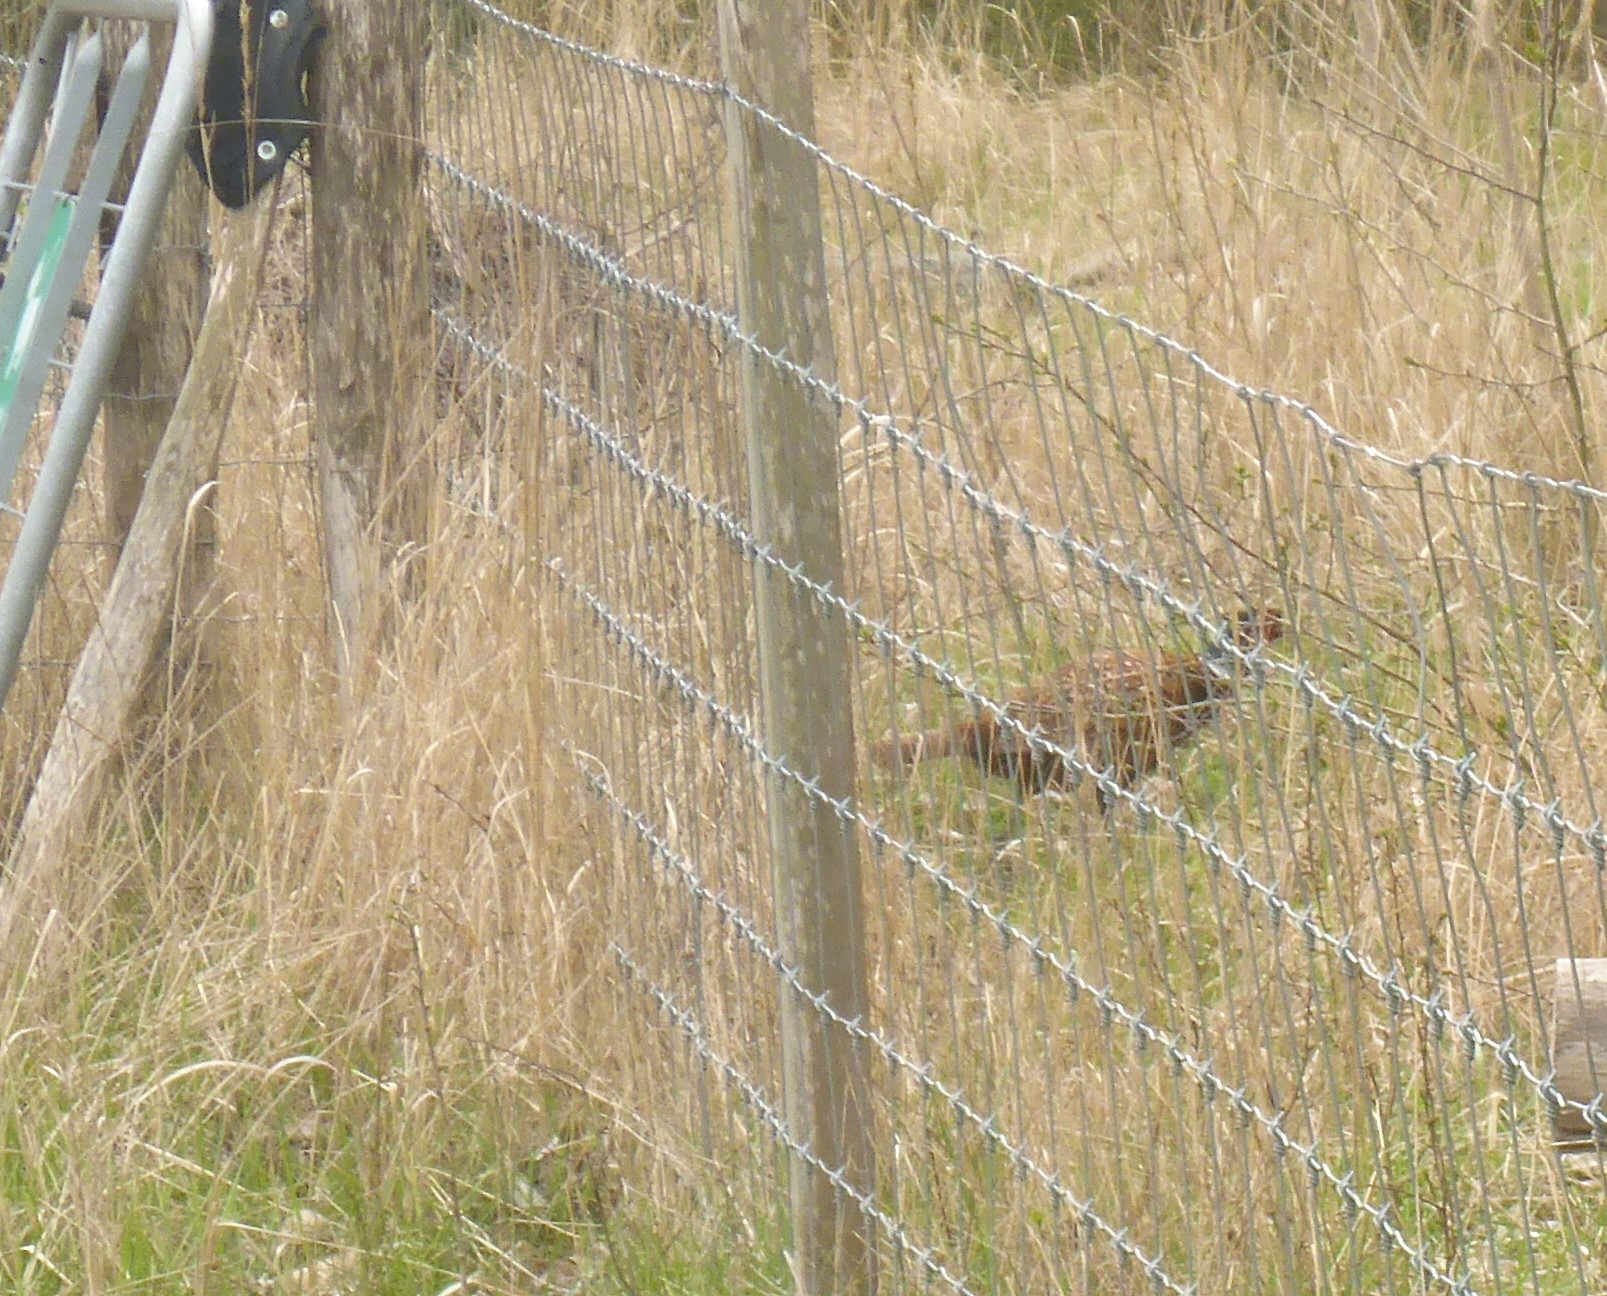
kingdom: Animalia
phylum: Chordata
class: Aves
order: Galliformes
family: Phasianidae
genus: Phasianus
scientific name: Phasianus colchicus
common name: Fasan
